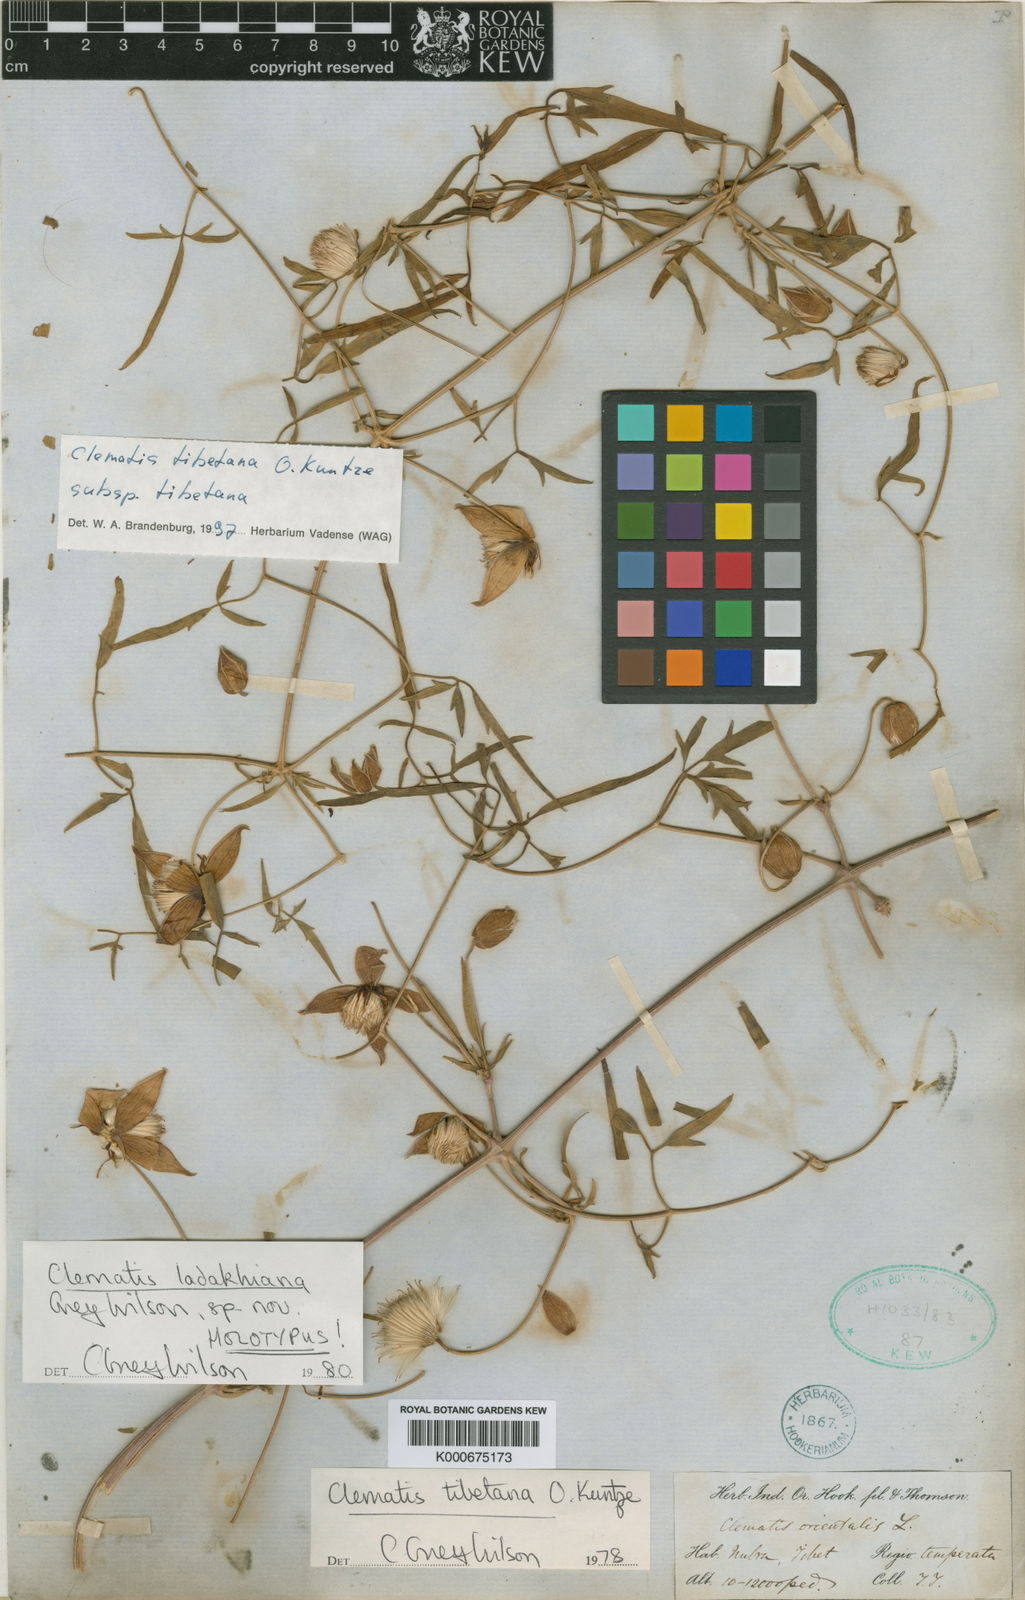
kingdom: Plantae
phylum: Tracheophyta
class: Magnoliopsida
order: Ranunculales
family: Ranunculaceae
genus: Clematis
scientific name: Clematis ladakhiana
